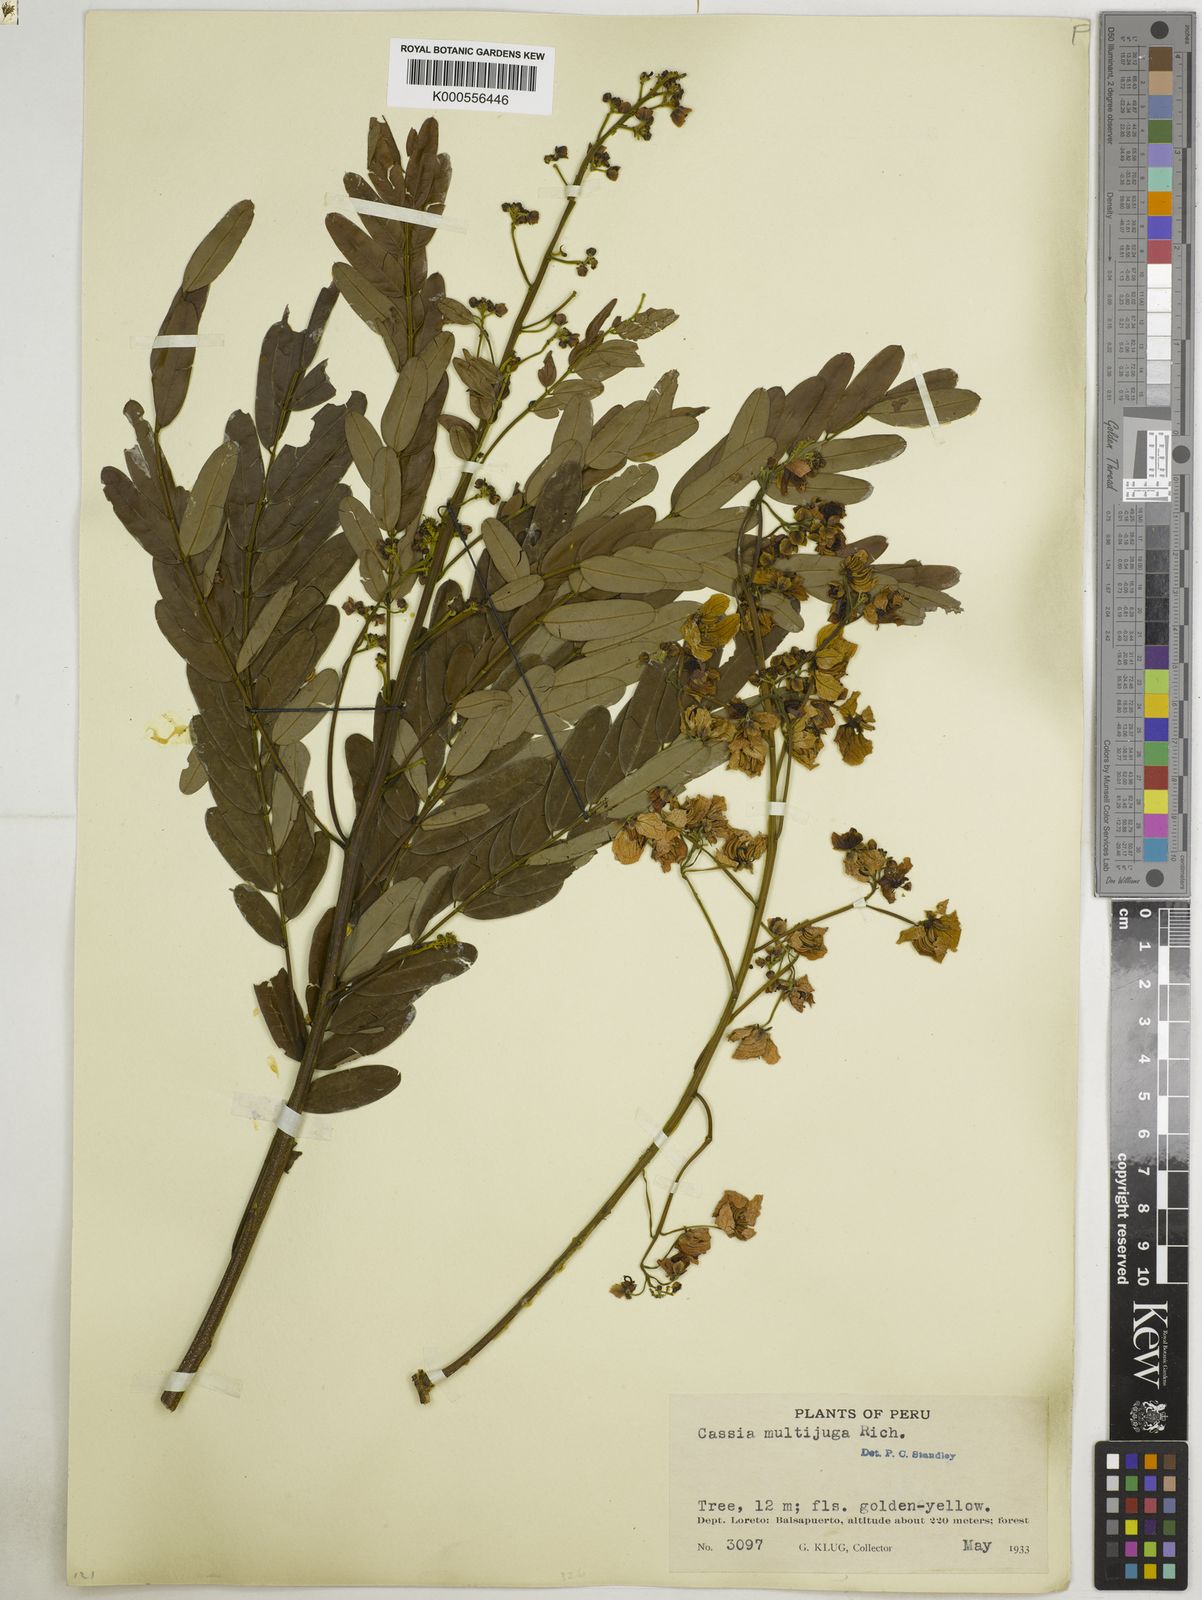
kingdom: Plantae
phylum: Tracheophyta
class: Magnoliopsida
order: Fabales
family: Fabaceae
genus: Senna
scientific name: Senna multijuga
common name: False sicklepod
